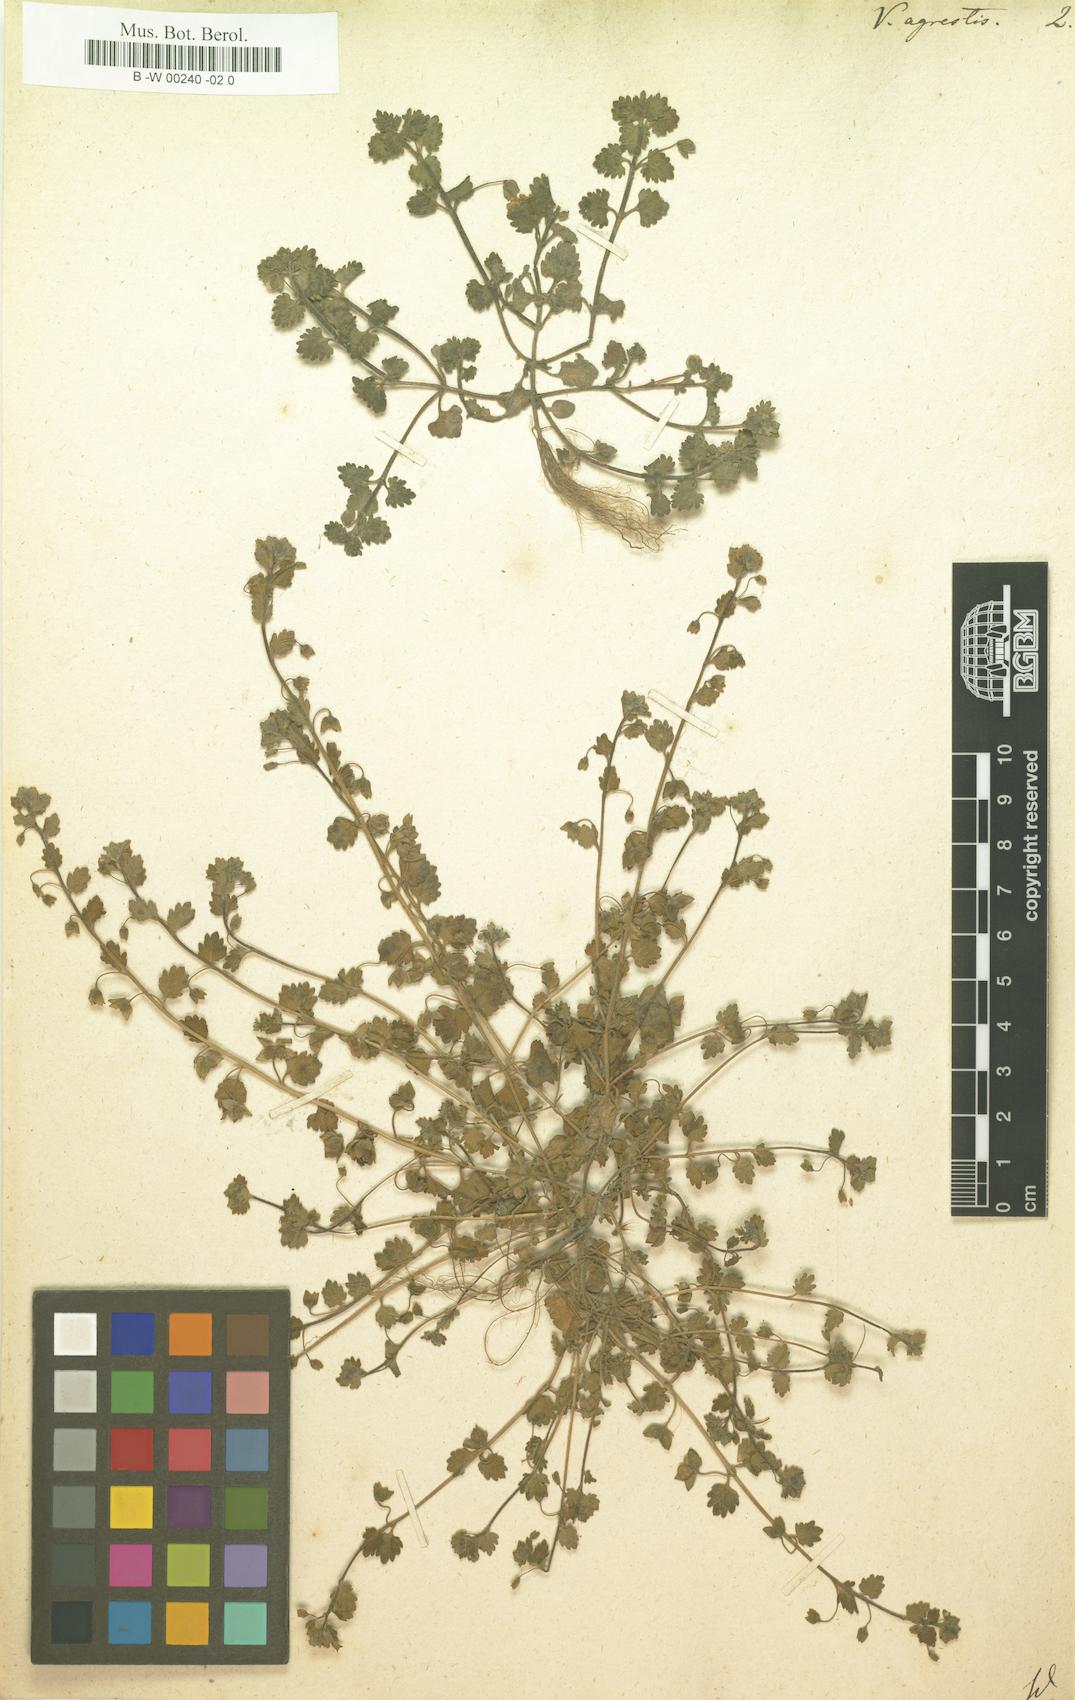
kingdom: Plantae
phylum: Tracheophyta
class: Magnoliopsida
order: Lamiales
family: Plantaginaceae
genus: Veronica
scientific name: Veronica agrestis
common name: Green field-speedwell
